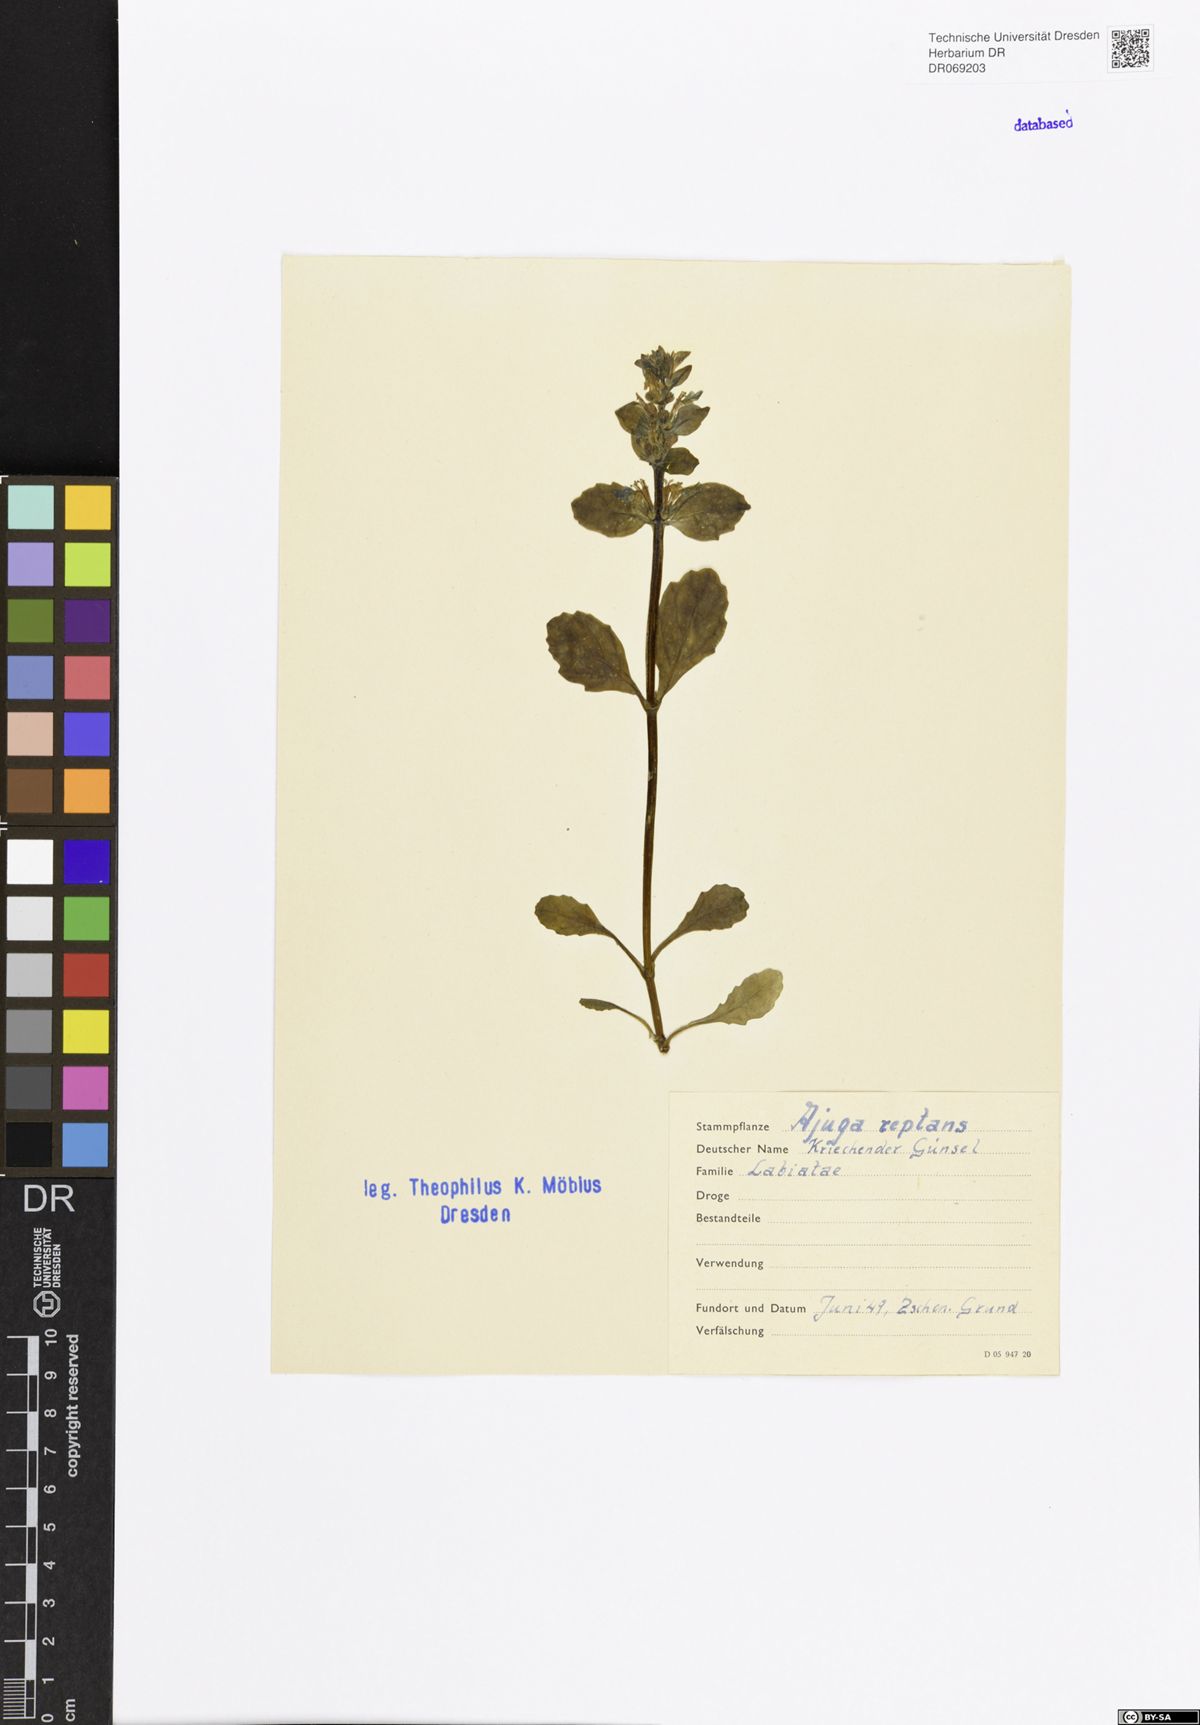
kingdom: Plantae
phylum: Tracheophyta
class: Magnoliopsida
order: Lamiales
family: Lamiaceae
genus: Ajuga
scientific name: Ajuga reptans
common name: Bugle
